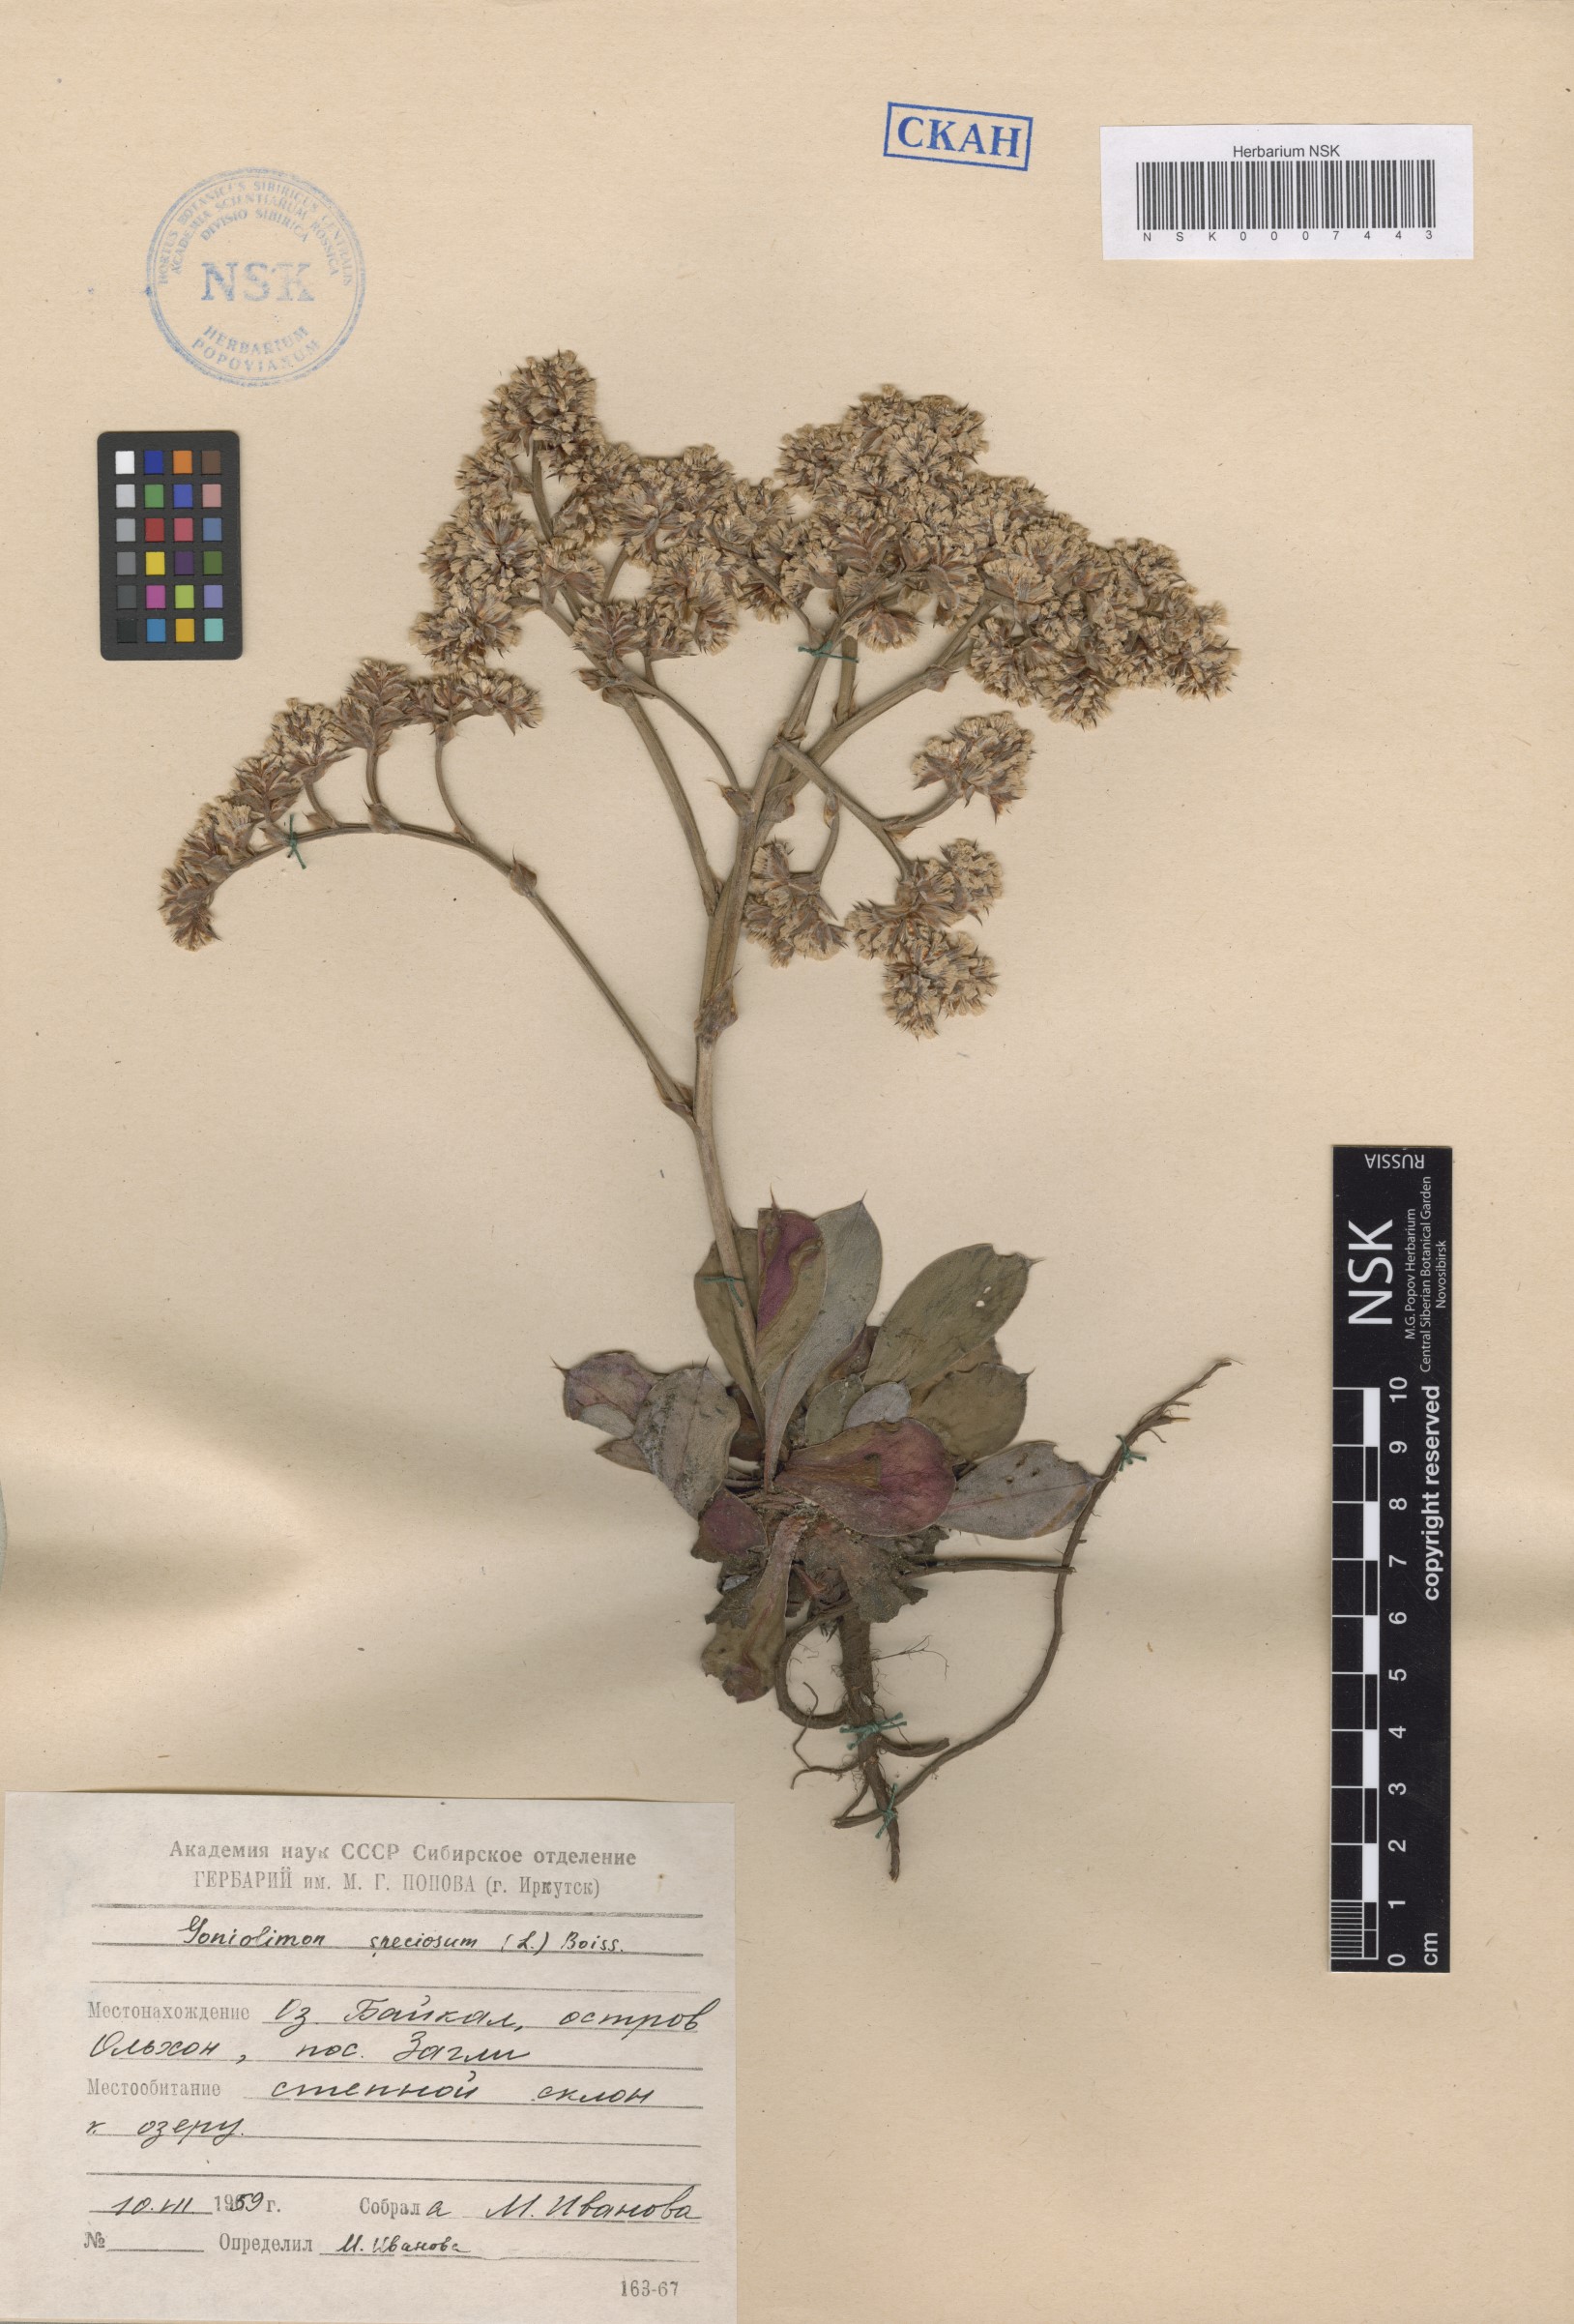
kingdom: Plantae
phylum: Tracheophyta
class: Magnoliopsida
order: Caryophyllales
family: Plumbaginaceae
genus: Goniolimon
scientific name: Goniolimon speciosum
